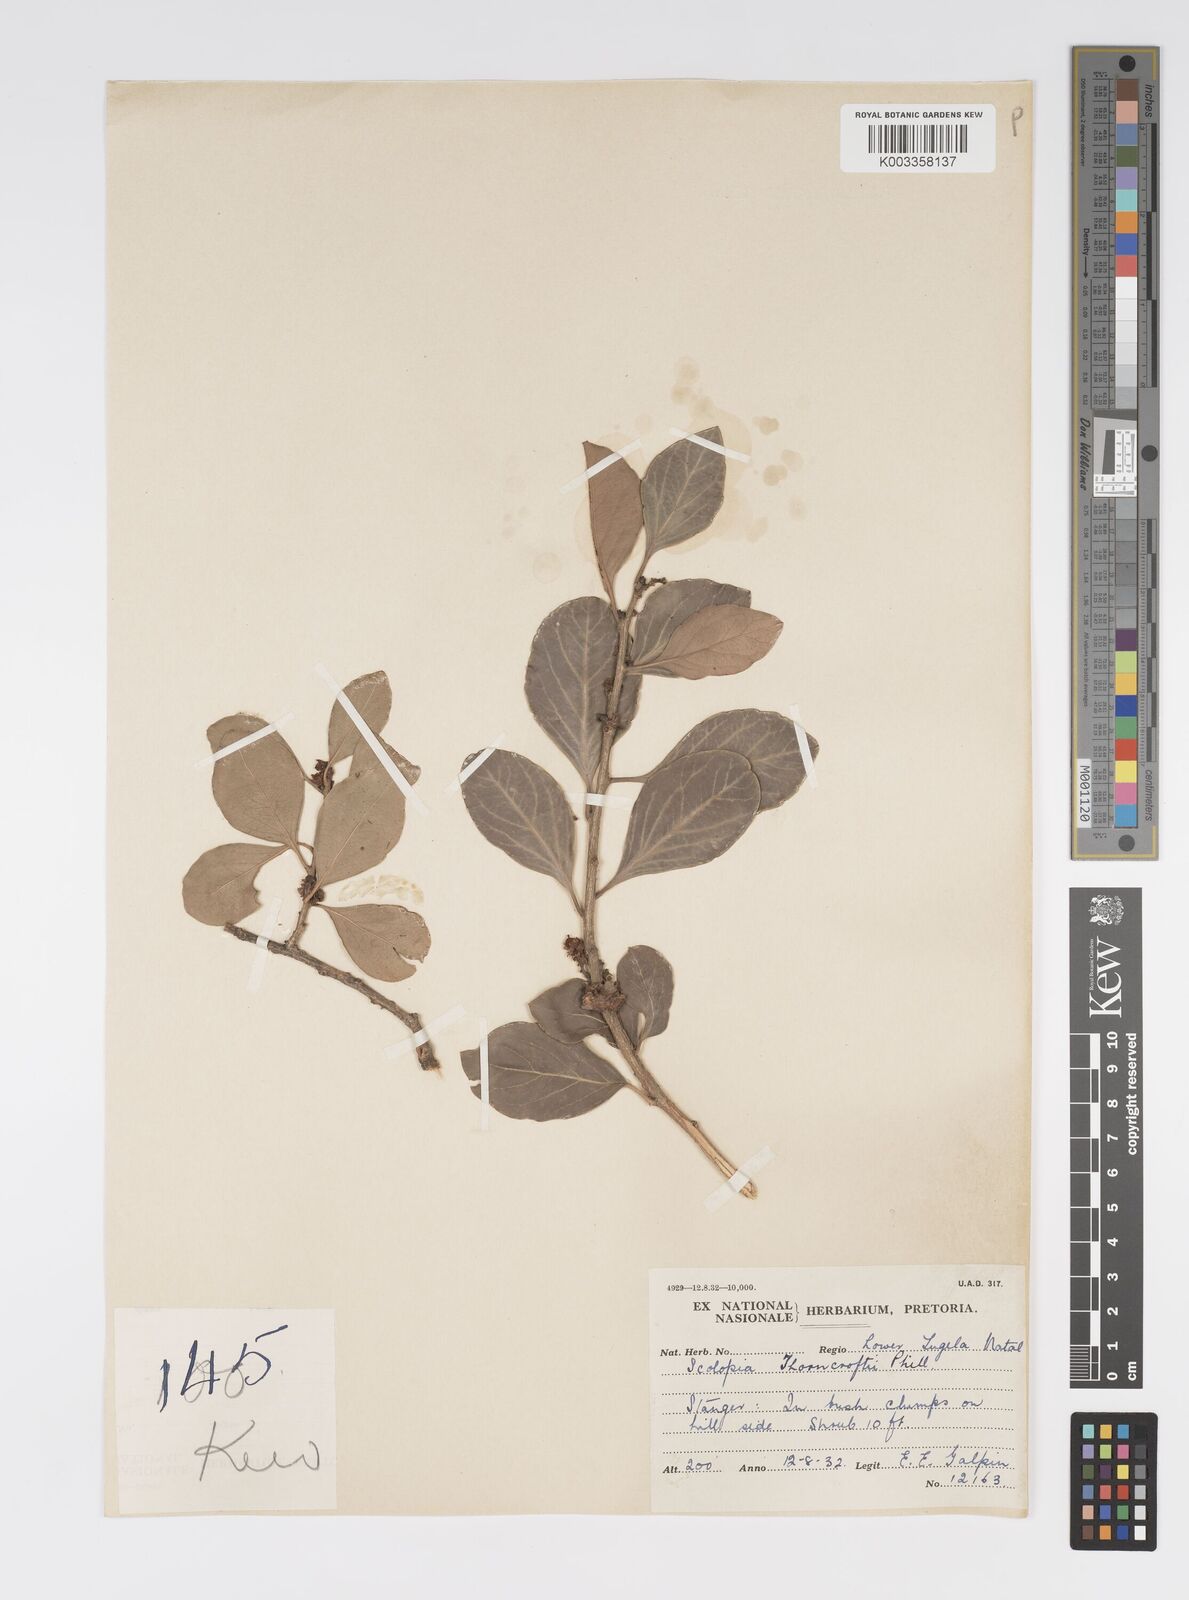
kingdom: Plantae
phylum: Tracheophyta
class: Magnoliopsida
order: Malpighiales
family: Salicaceae
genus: Scolopia
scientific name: Scolopia zeyheri
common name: Thorn pear
